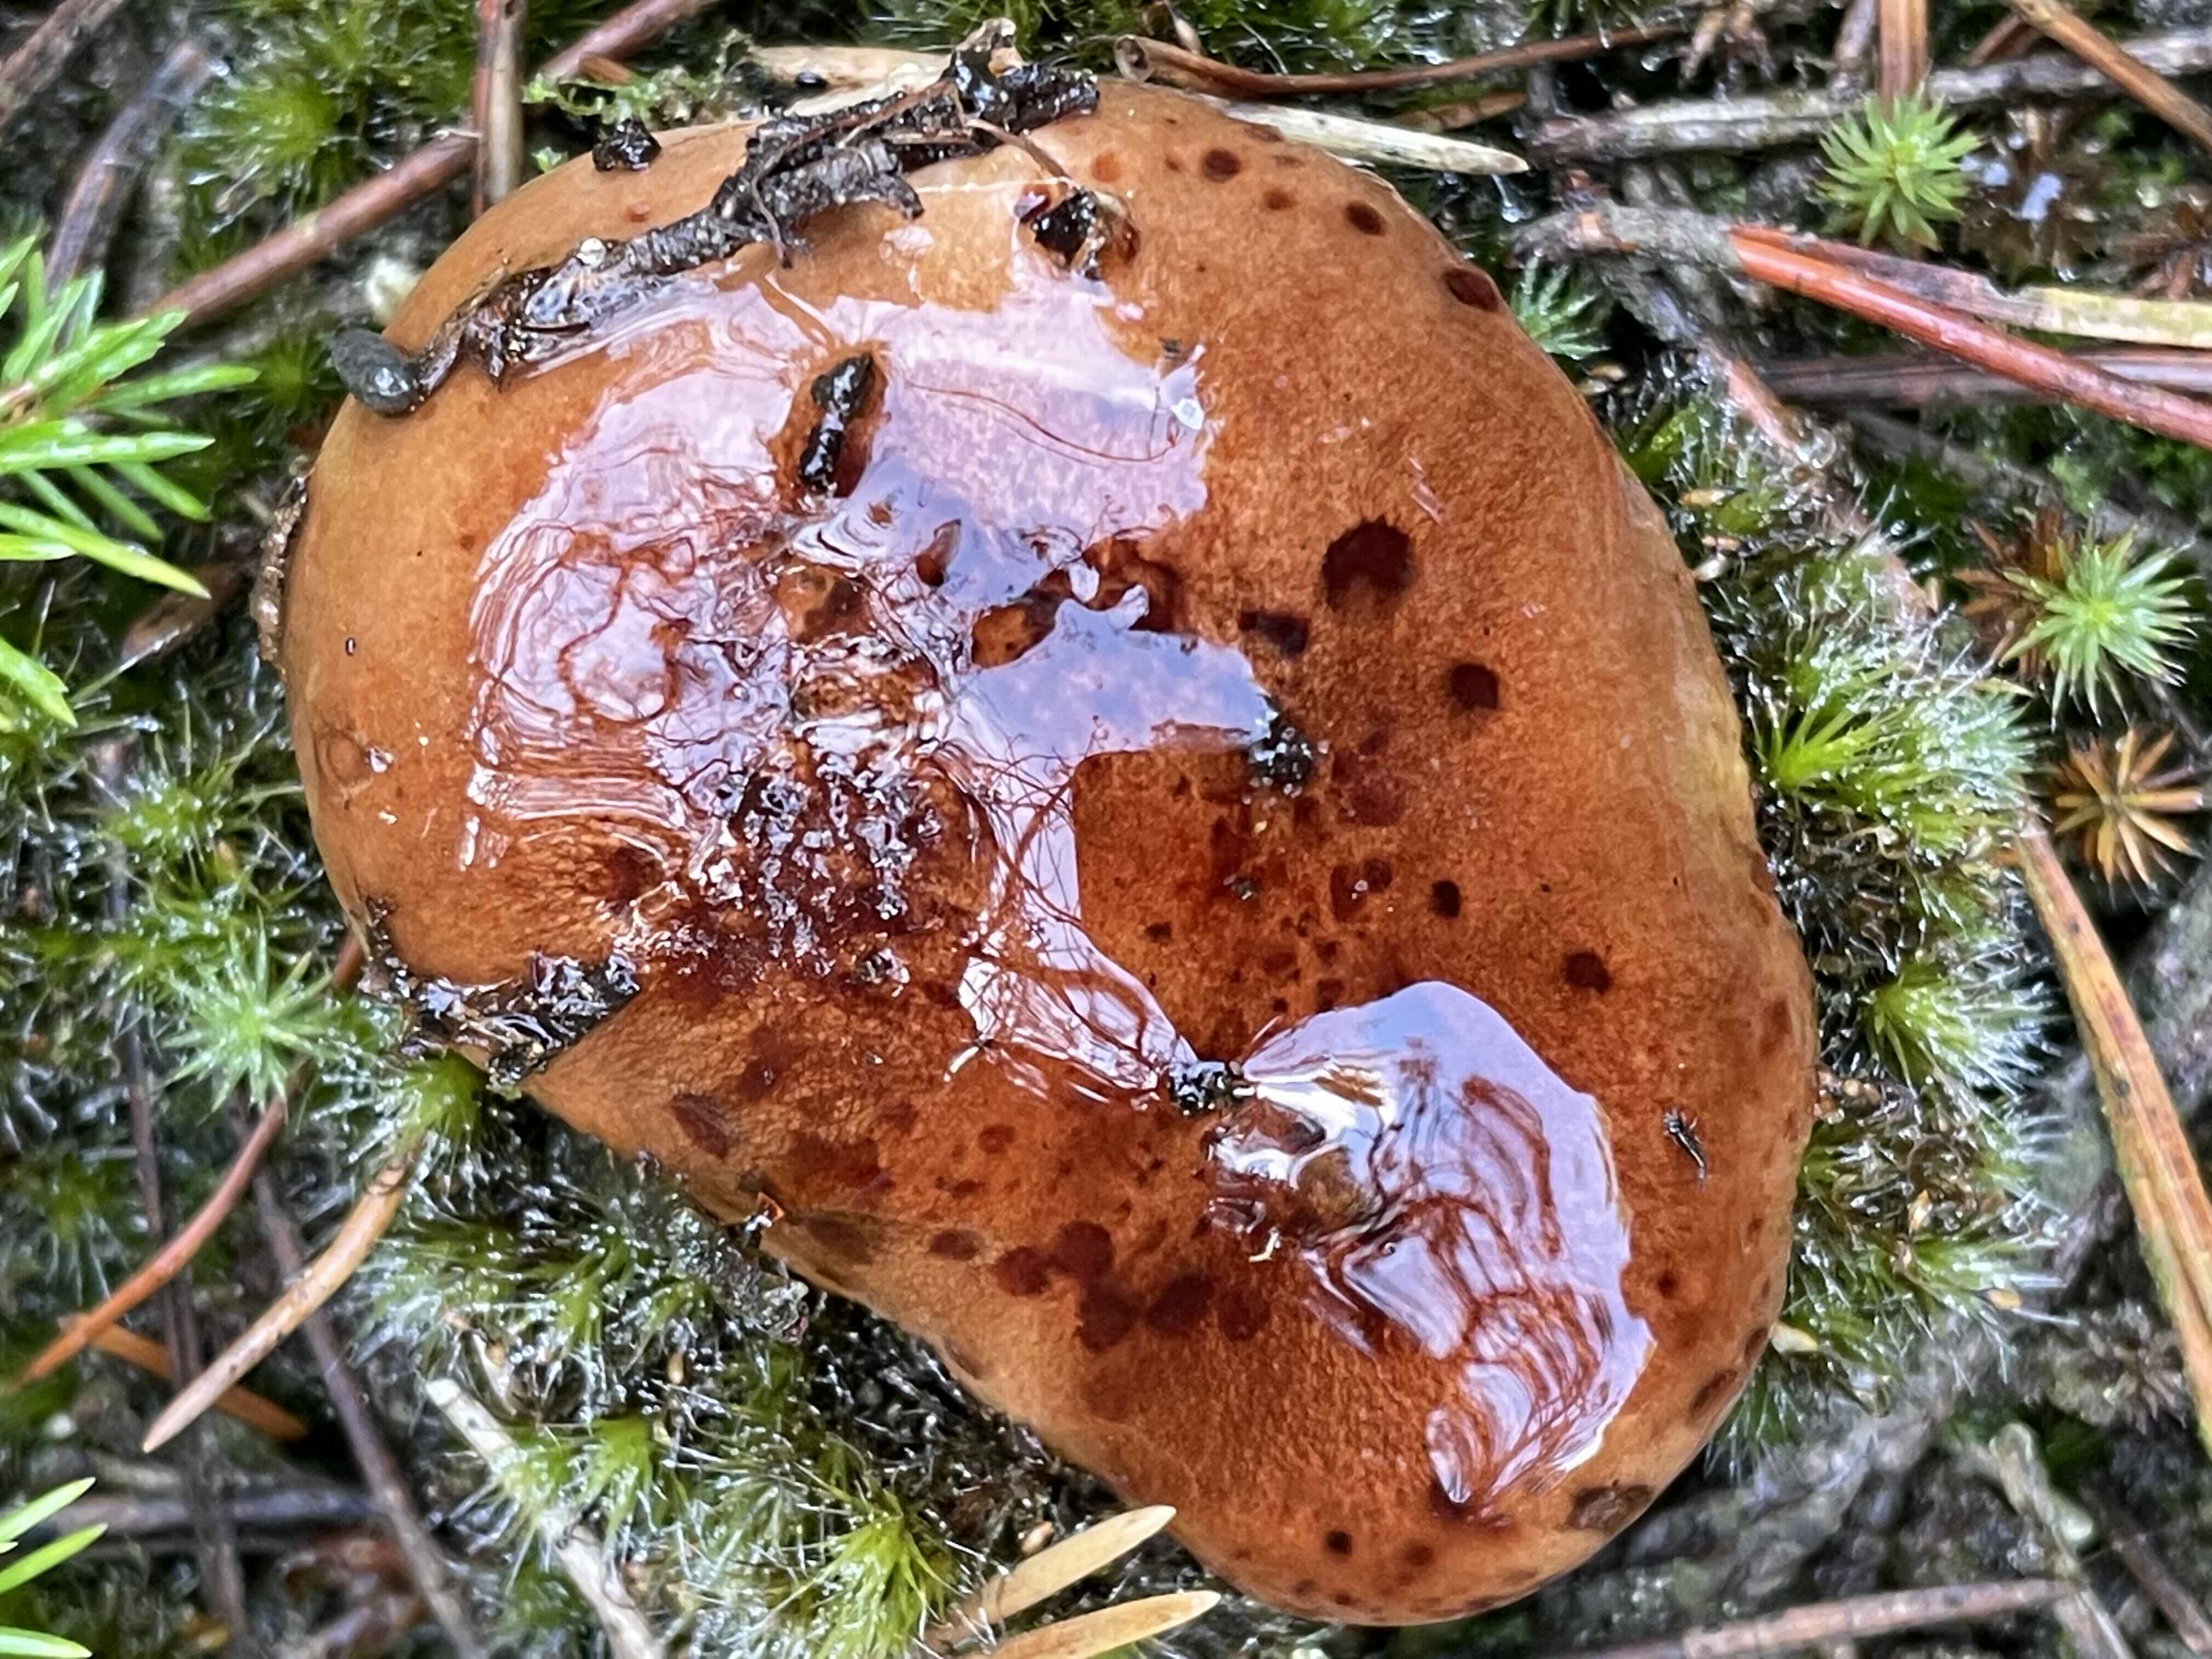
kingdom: Fungi
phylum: Basidiomycota
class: Agaricomycetes
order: Agaricales
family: Tricholomataceae
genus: Tricholoma
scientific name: Tricholoma pessundatum
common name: dråbeplettet ridderhat
